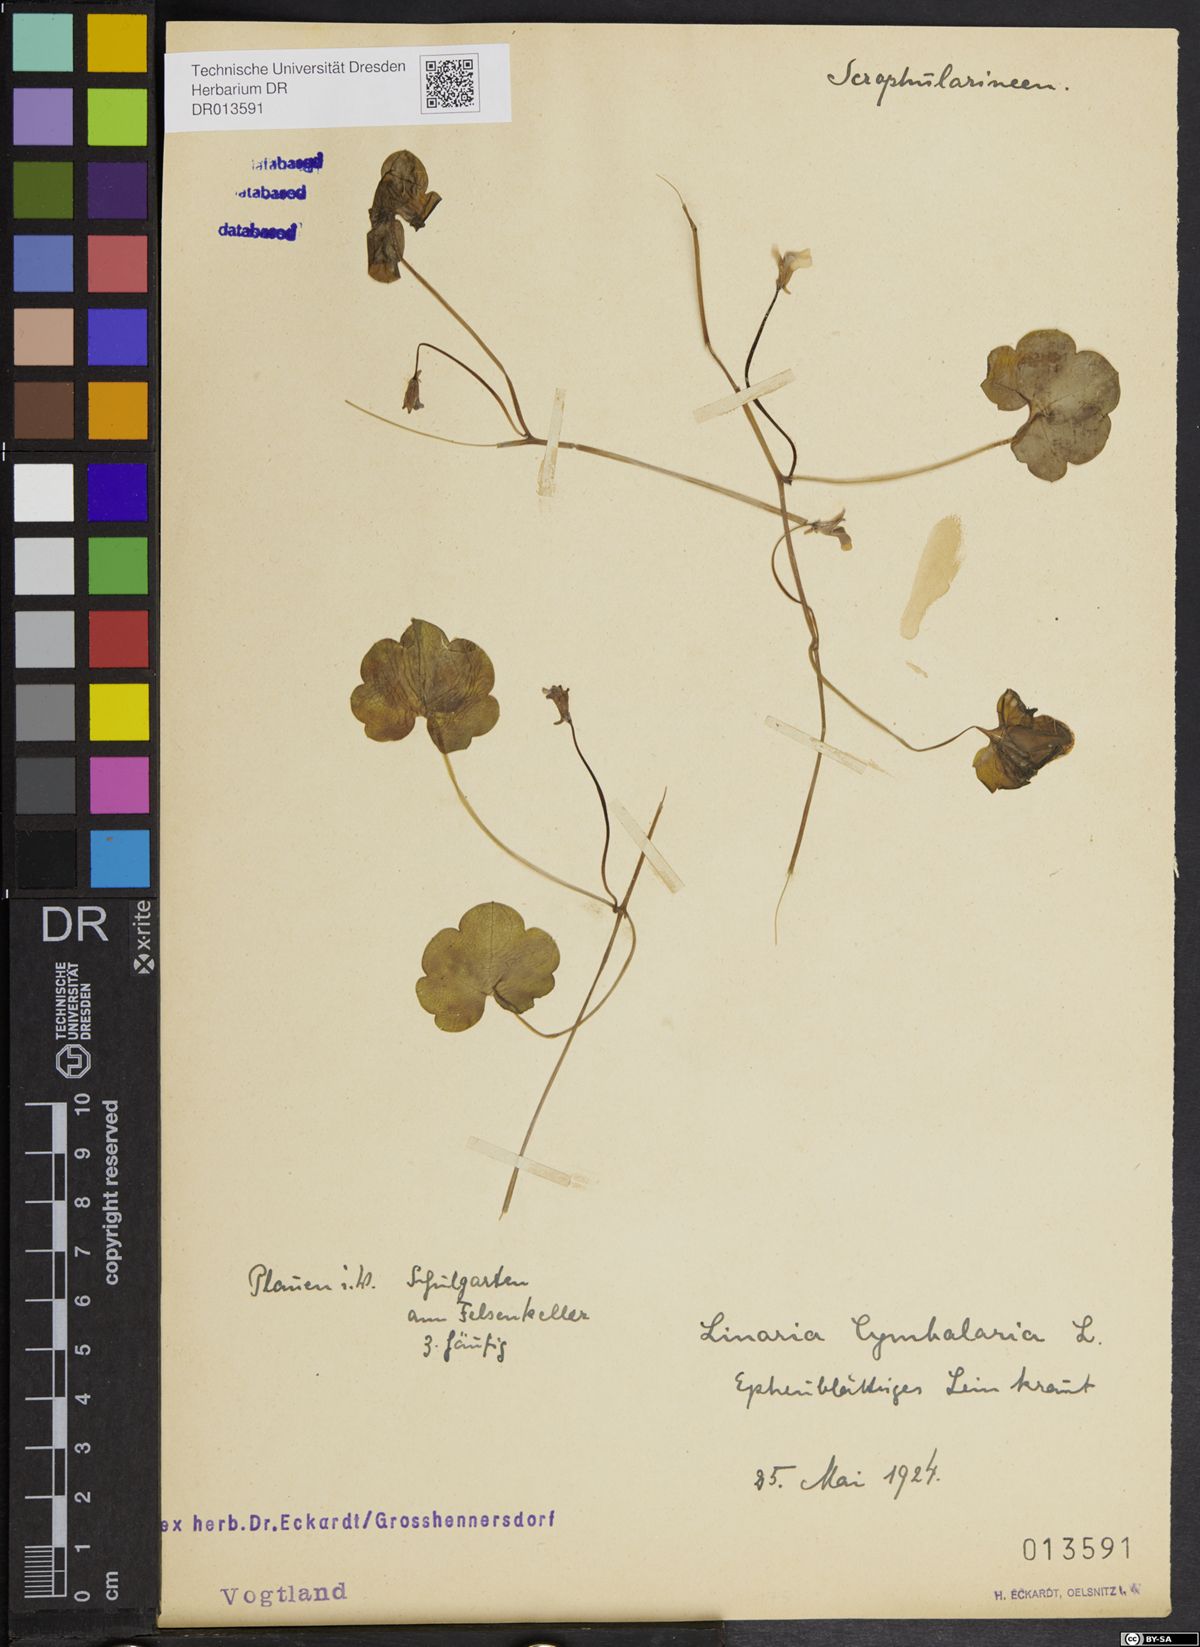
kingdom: Plantae
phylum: Tracheophyta
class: Magnoliopsida
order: Lamiales
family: Plantaginaceae
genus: Cymbalaria
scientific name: Cymbalaria muralis
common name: Ivy-leaved toadflax
